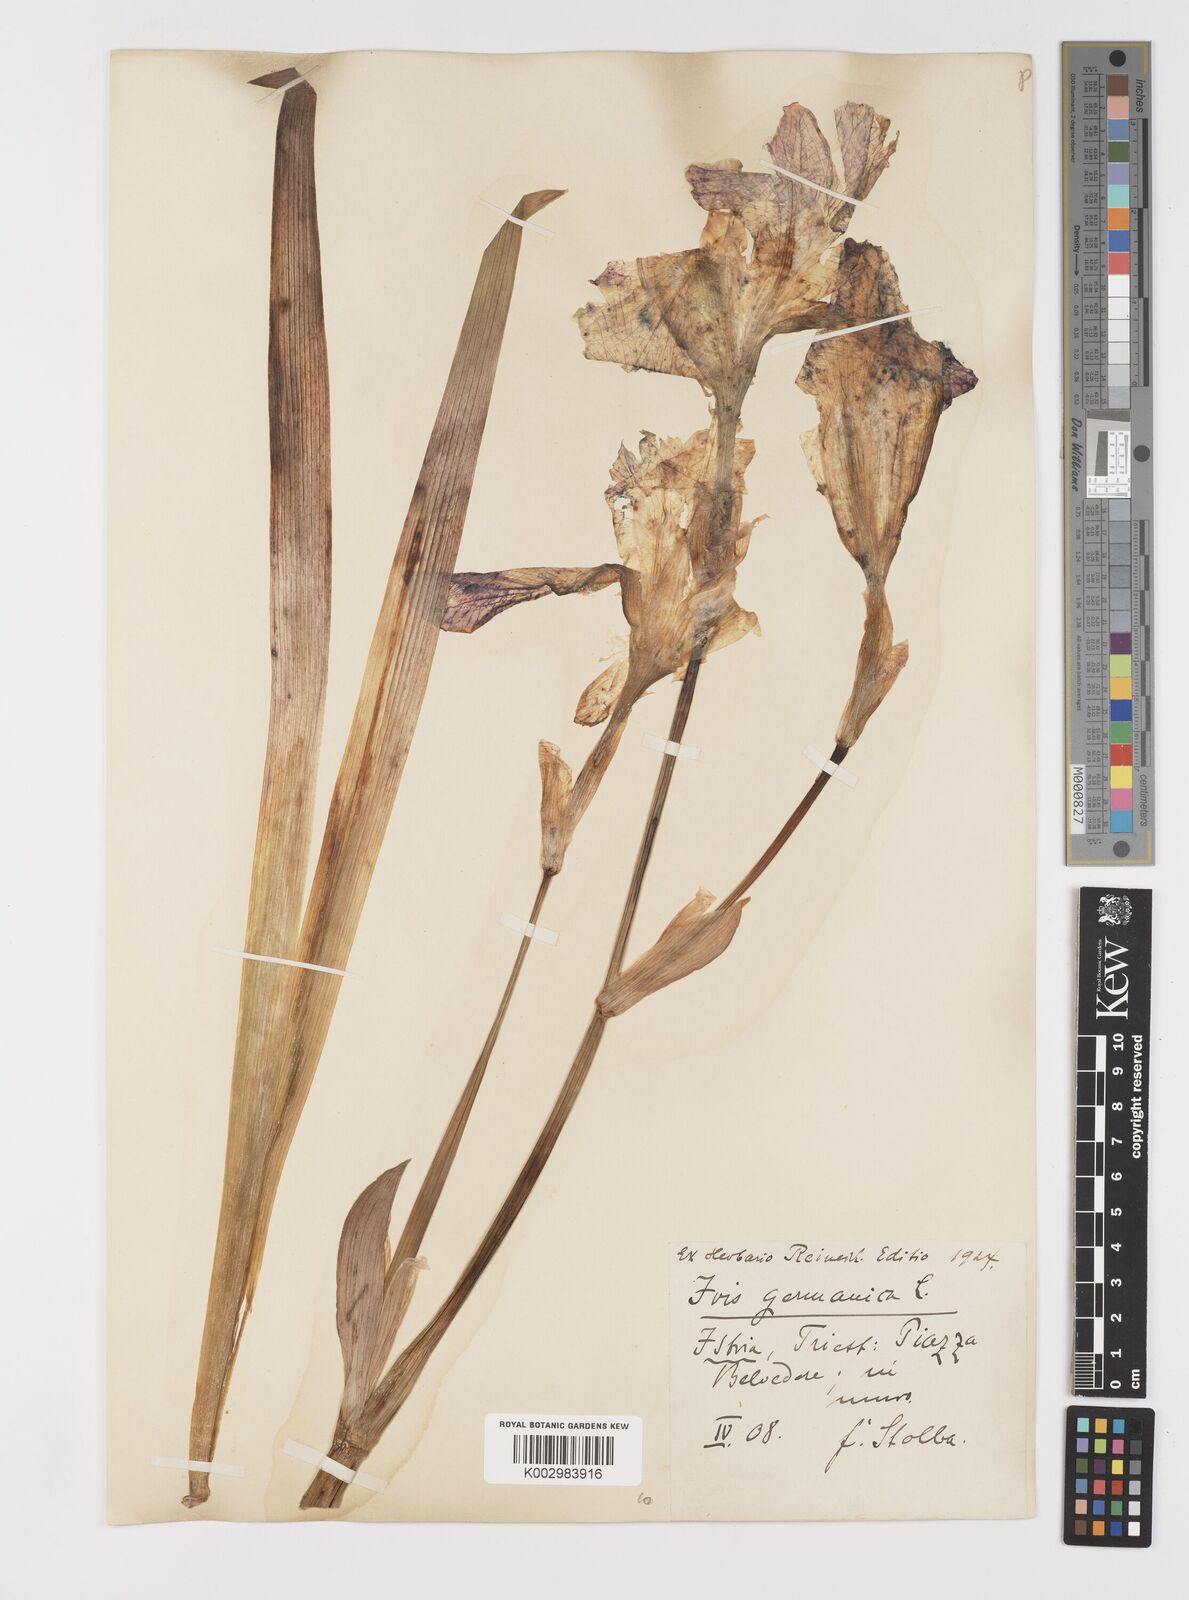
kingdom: Plantae
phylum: Tracheophyta
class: Liliopsida
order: Asparagales
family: Iridaceae
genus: Iris
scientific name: Iris germanica
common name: German iris
